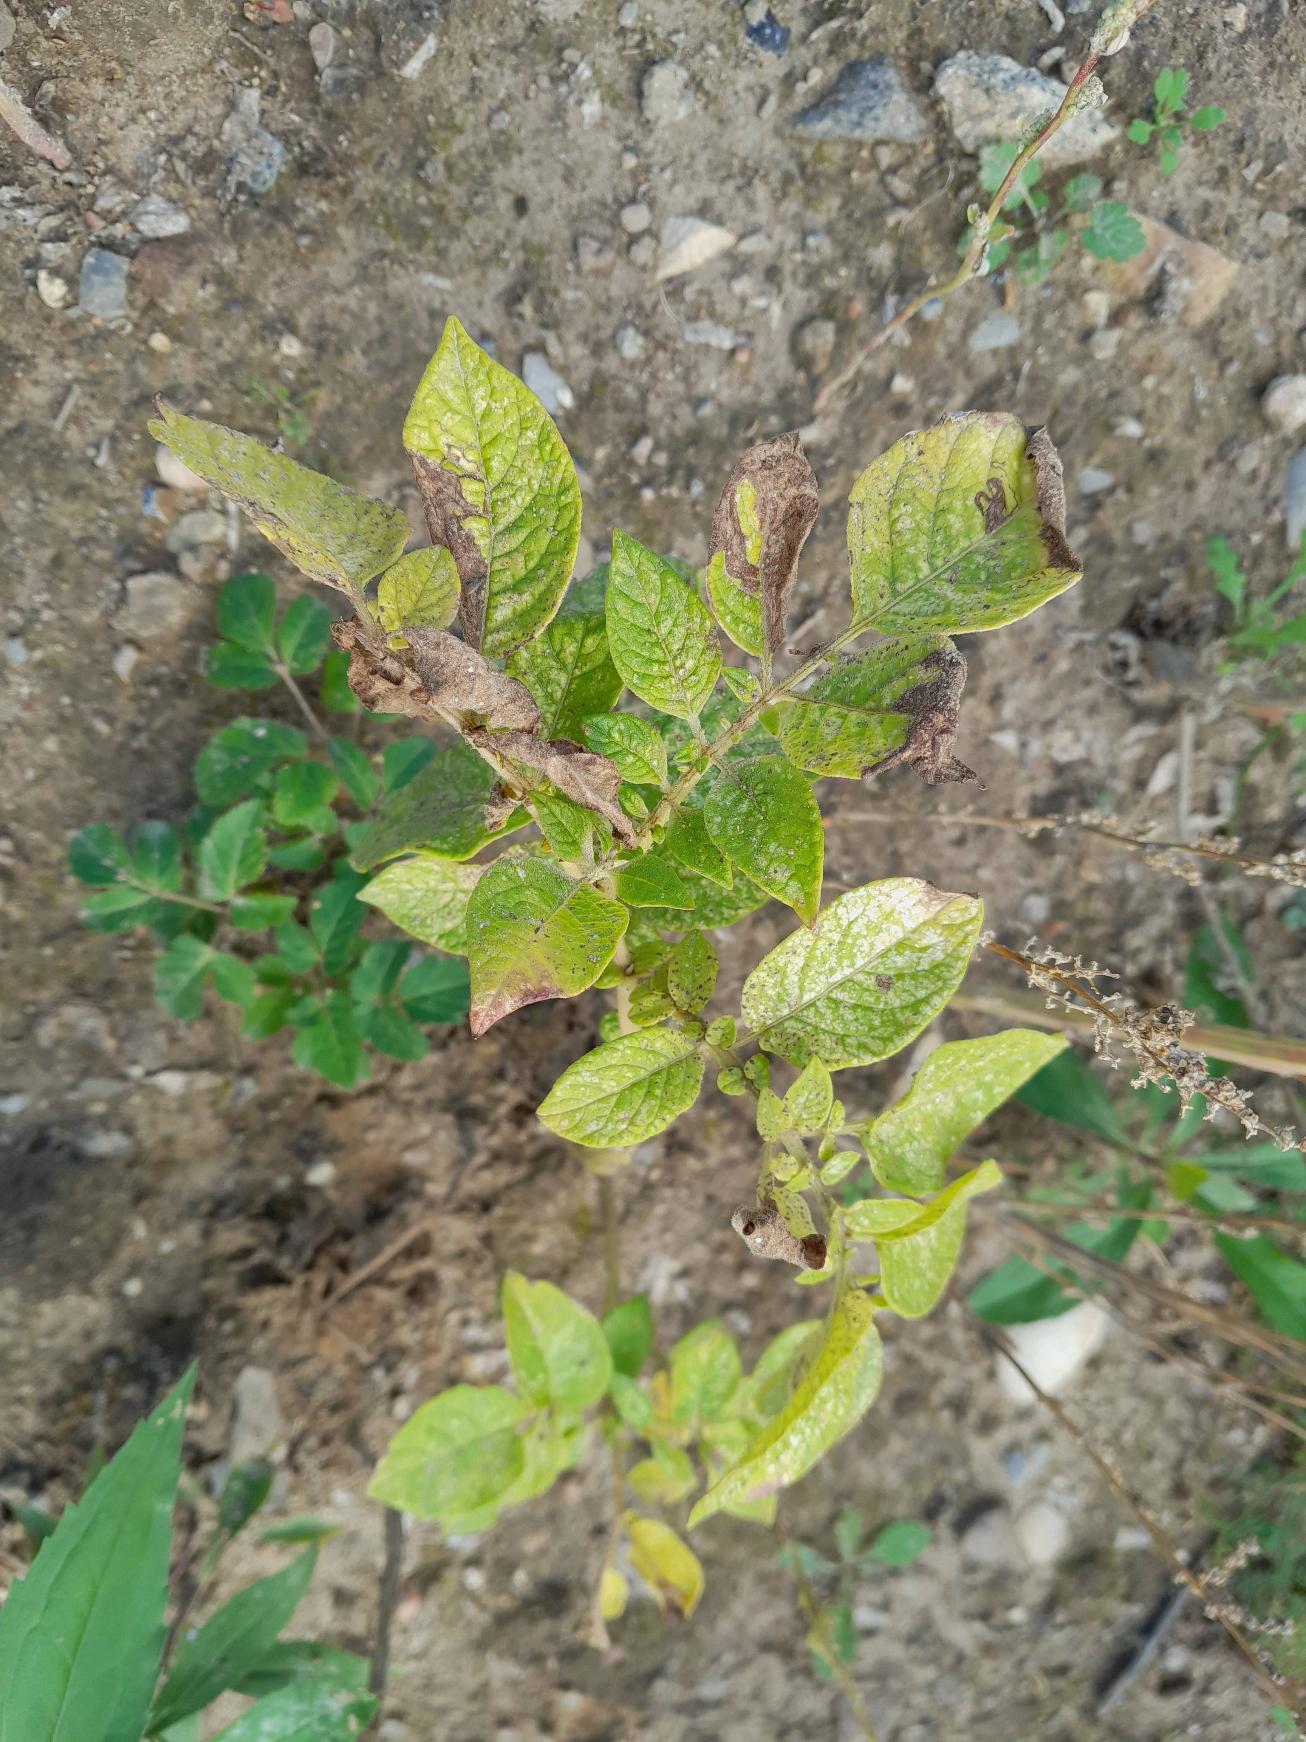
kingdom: Plantae
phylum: Tracheophyta
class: Magnoliopsida
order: Solanales
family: Solanaceae
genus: Solanum
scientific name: Solanum tuberosum
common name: Kartoffel
